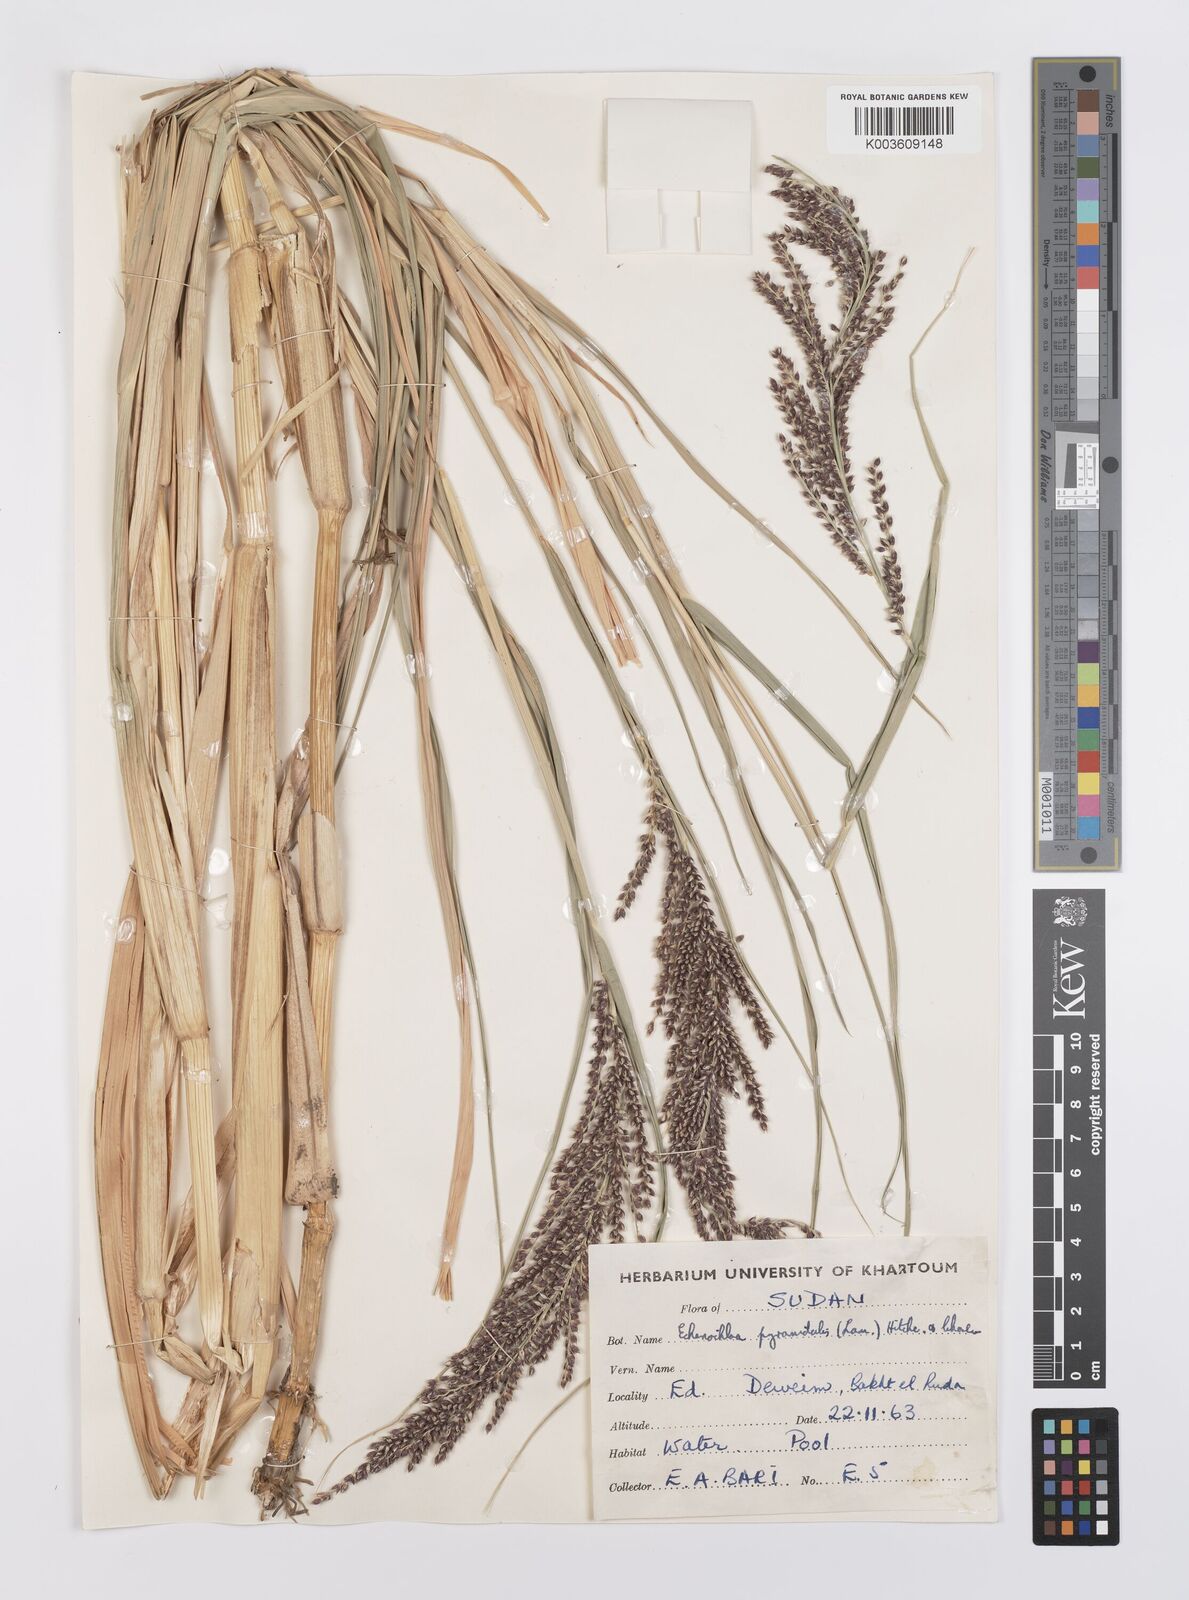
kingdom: Plantae
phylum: Tracheophyta
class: Liliopsida
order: Poales
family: Poaceae
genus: Echinochloa
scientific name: Echinochloa pyramidalis
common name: Antelope grass
